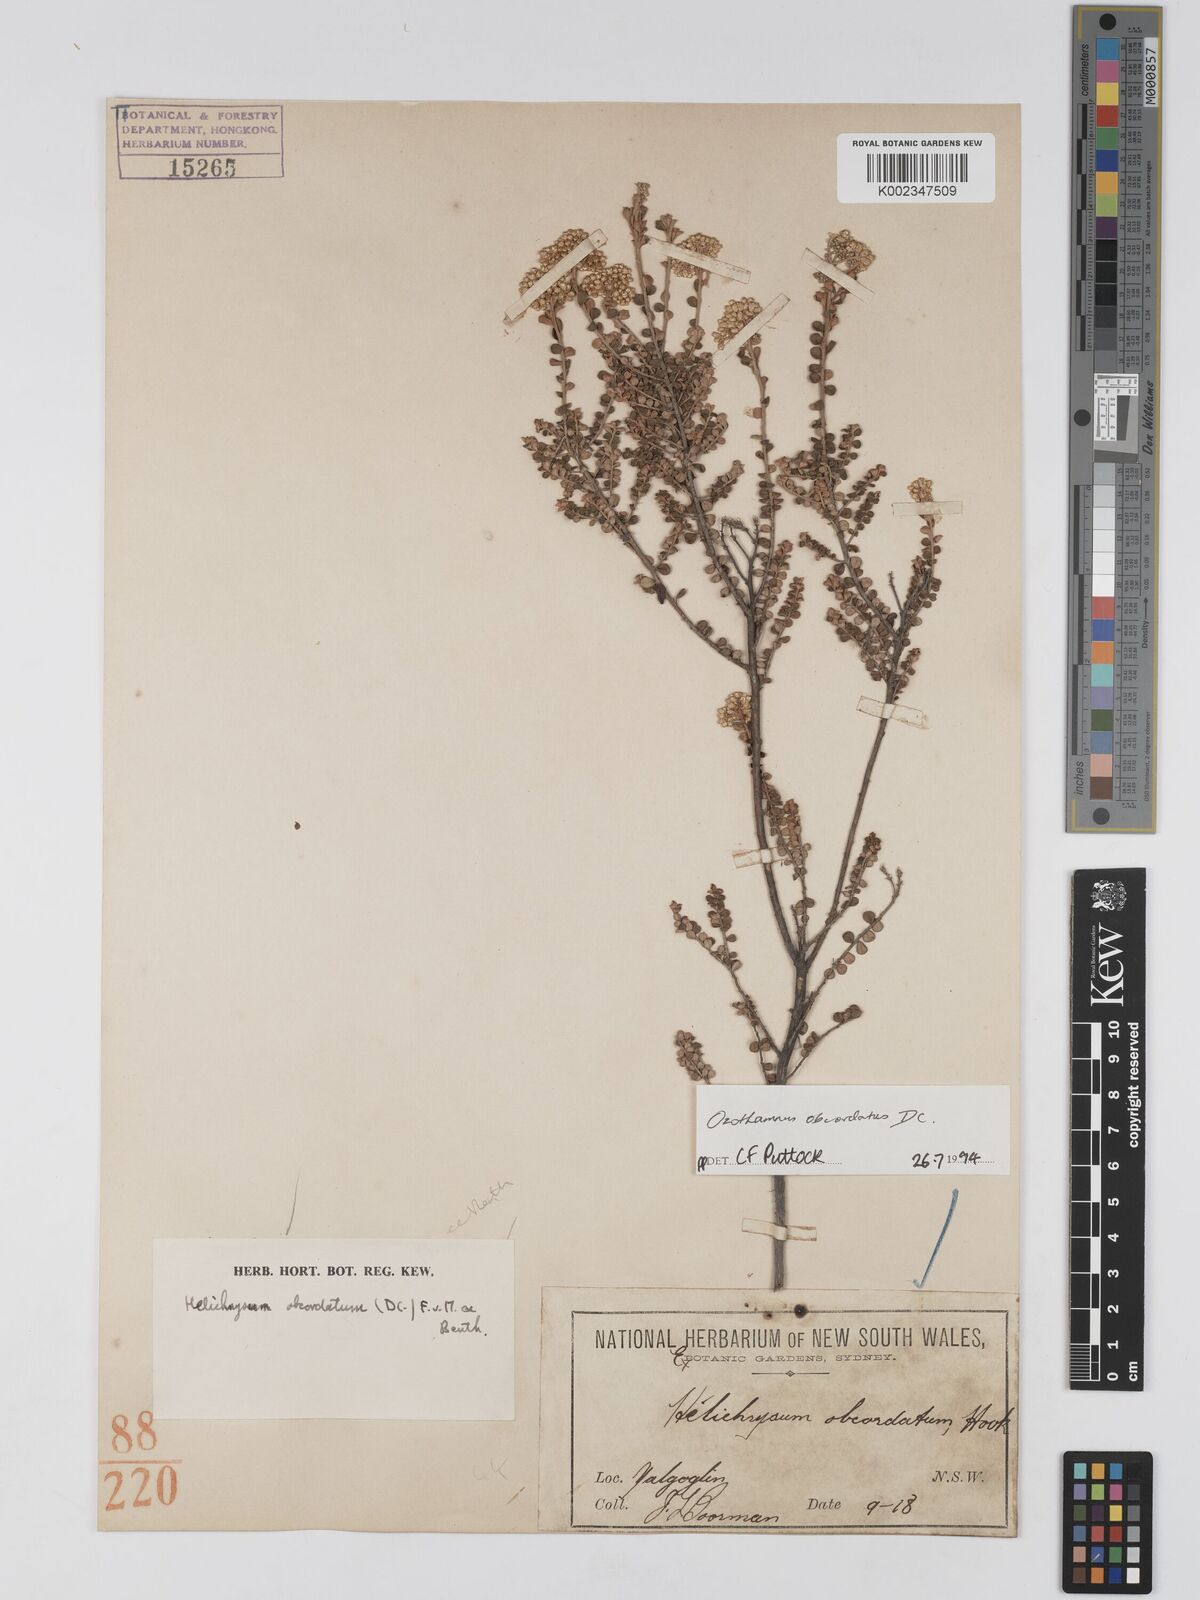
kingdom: Plantae
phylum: Tracheophyta
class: Magnoliopsida
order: Asterales
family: Asteraceae
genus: Ozothamnus
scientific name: Ozothamnus
